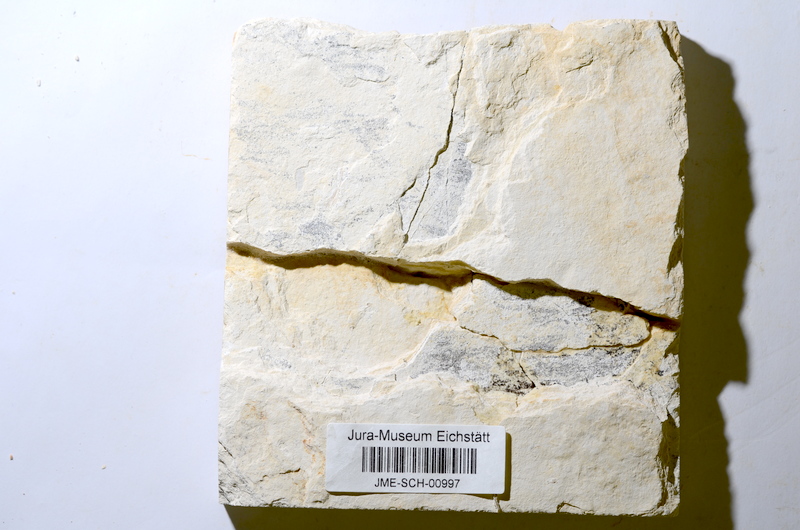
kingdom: Animalia
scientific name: Animalia
